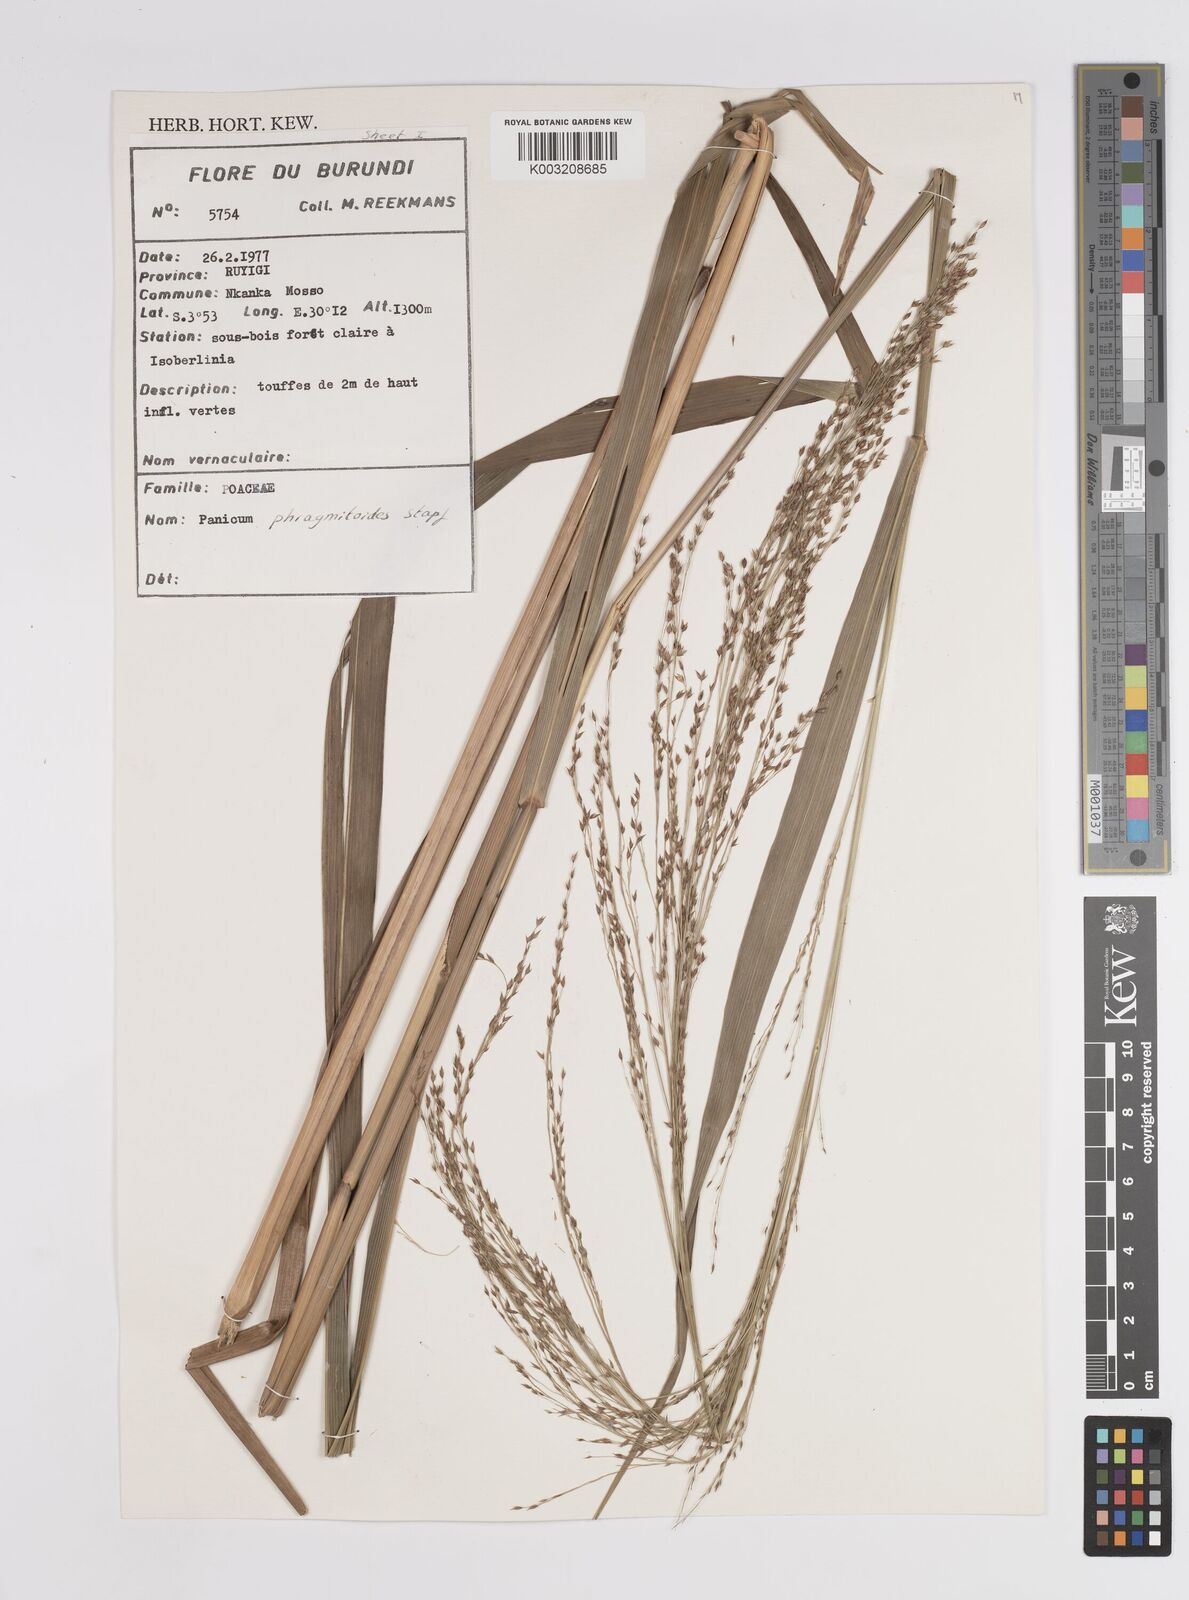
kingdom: Plantae
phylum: Tracheophyta
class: Liliopsida
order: Poales
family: Poaceae
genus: Panicum
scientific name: Panicum phragmitoides
